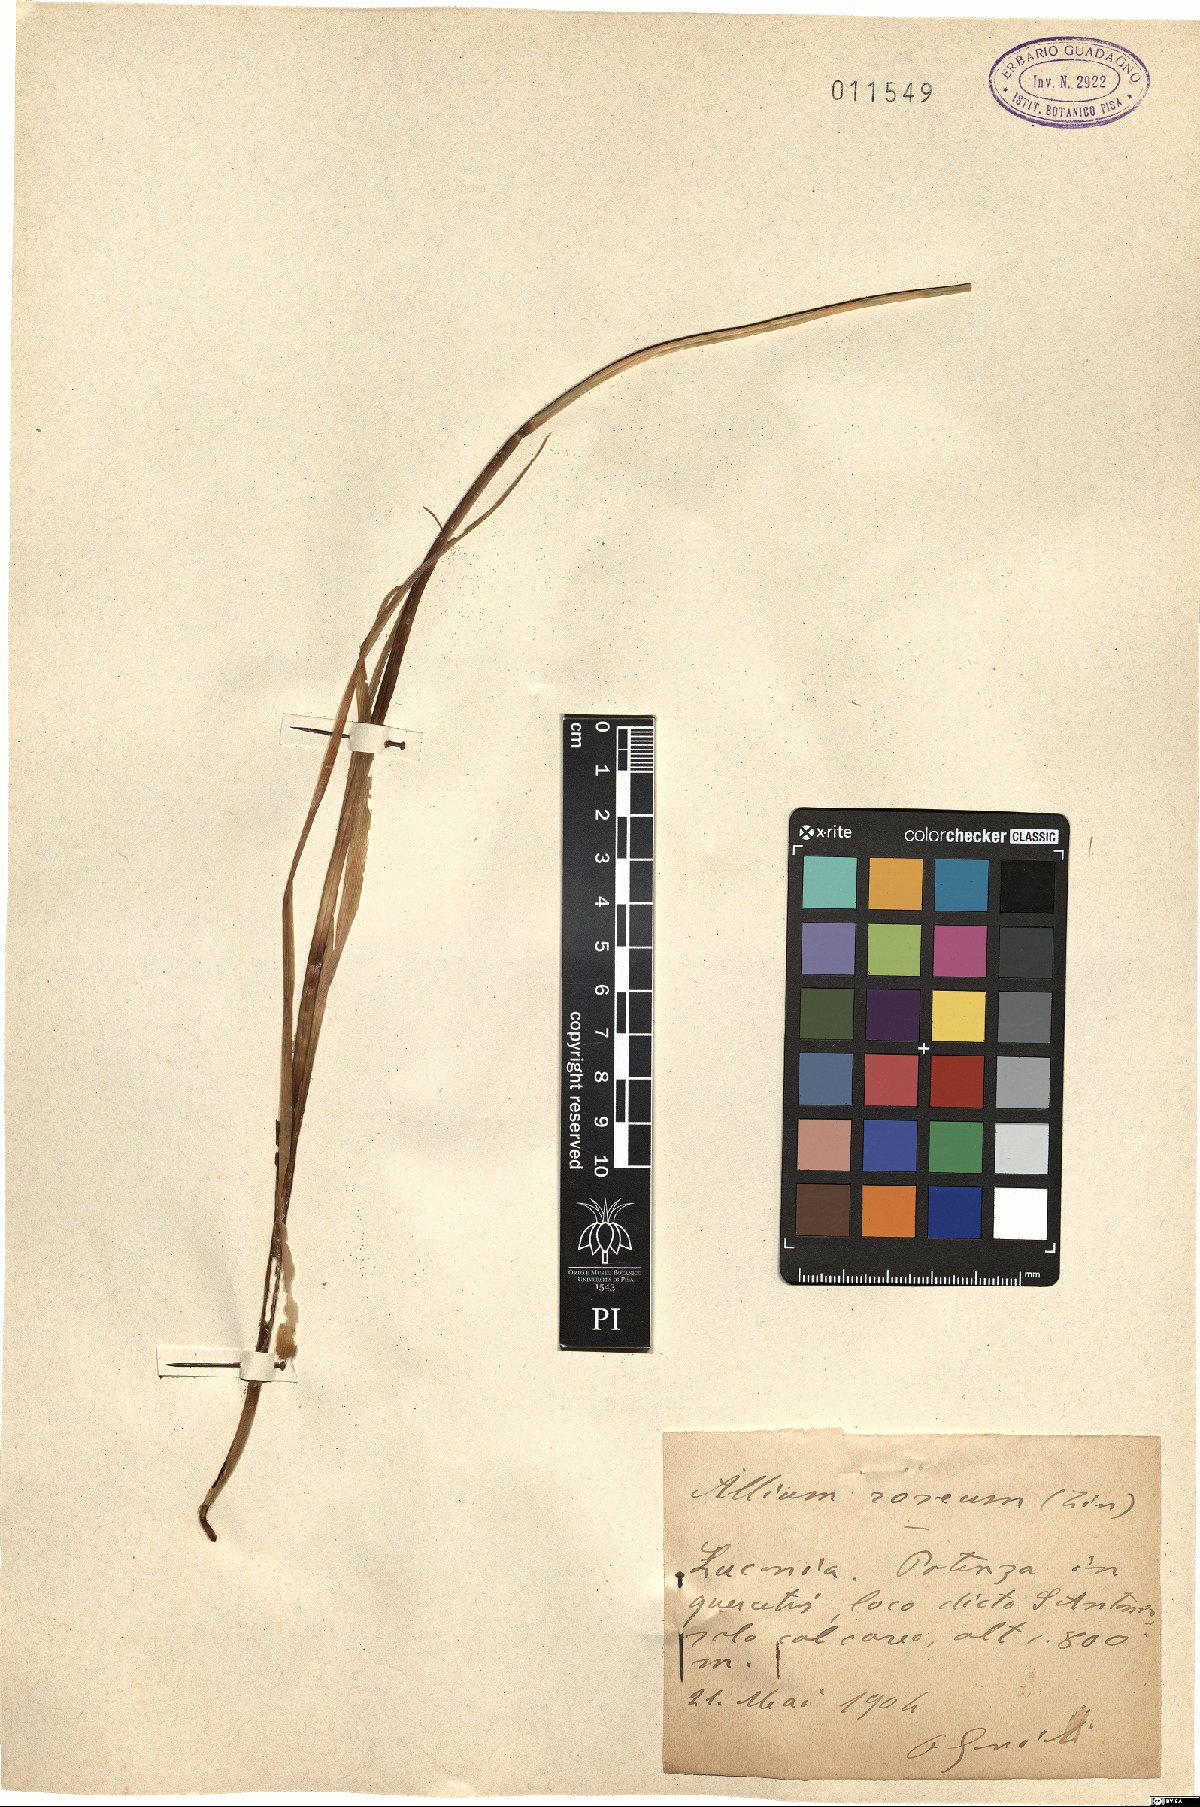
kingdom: Plantae
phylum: Tracheophyta
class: Liliopsida
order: Asparagales
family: Amaryllidaceae
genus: Allium
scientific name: Allium roseum
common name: Rosy garlic
